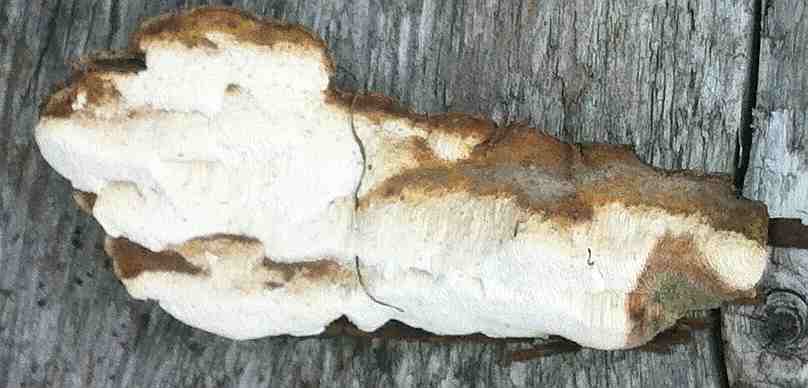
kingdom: Fungi
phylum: Basidiomycota
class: Agaricomycetes
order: Polyporales
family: Fomitopsidaceae
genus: Neoantrodia
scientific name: Neoantrodia serialis
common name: række-sejporesvamp
